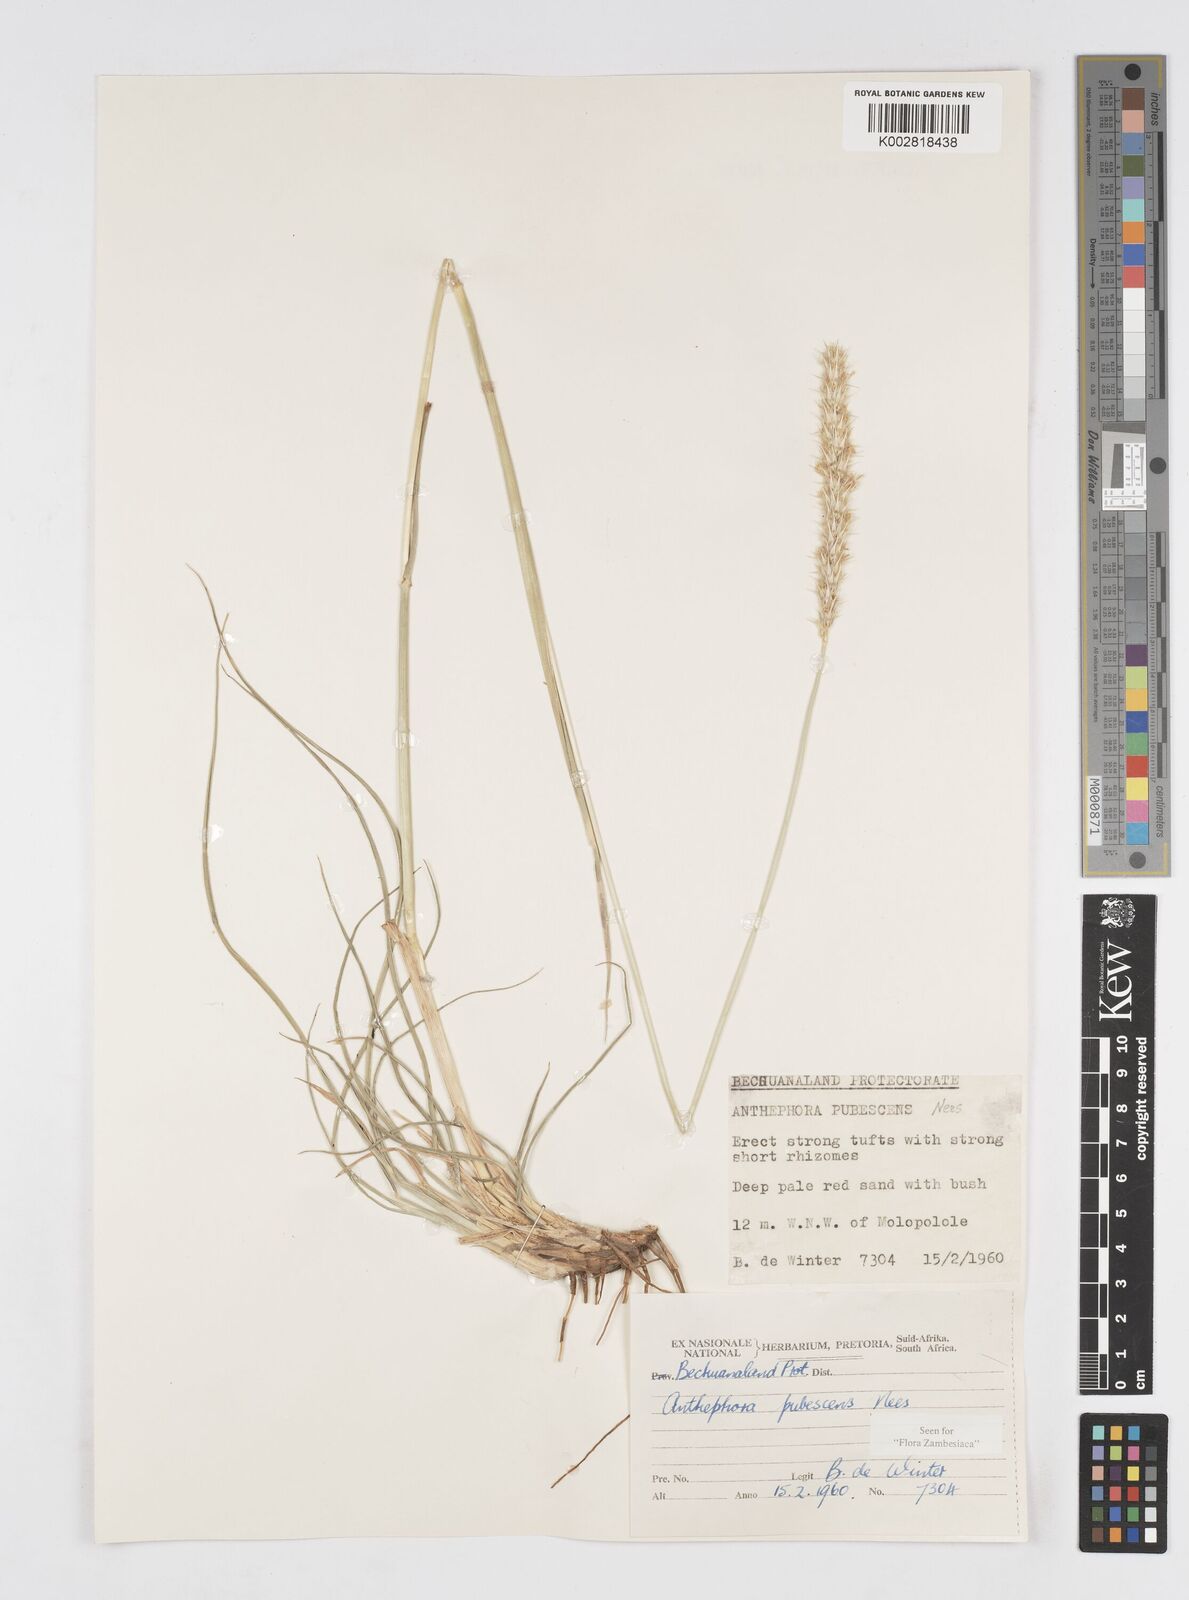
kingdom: Plantae
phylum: Tracheophyta
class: Liliopsida
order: Poales
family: Poaceae
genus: Anthephora
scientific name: Anthephora pubescens
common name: Wool grass
